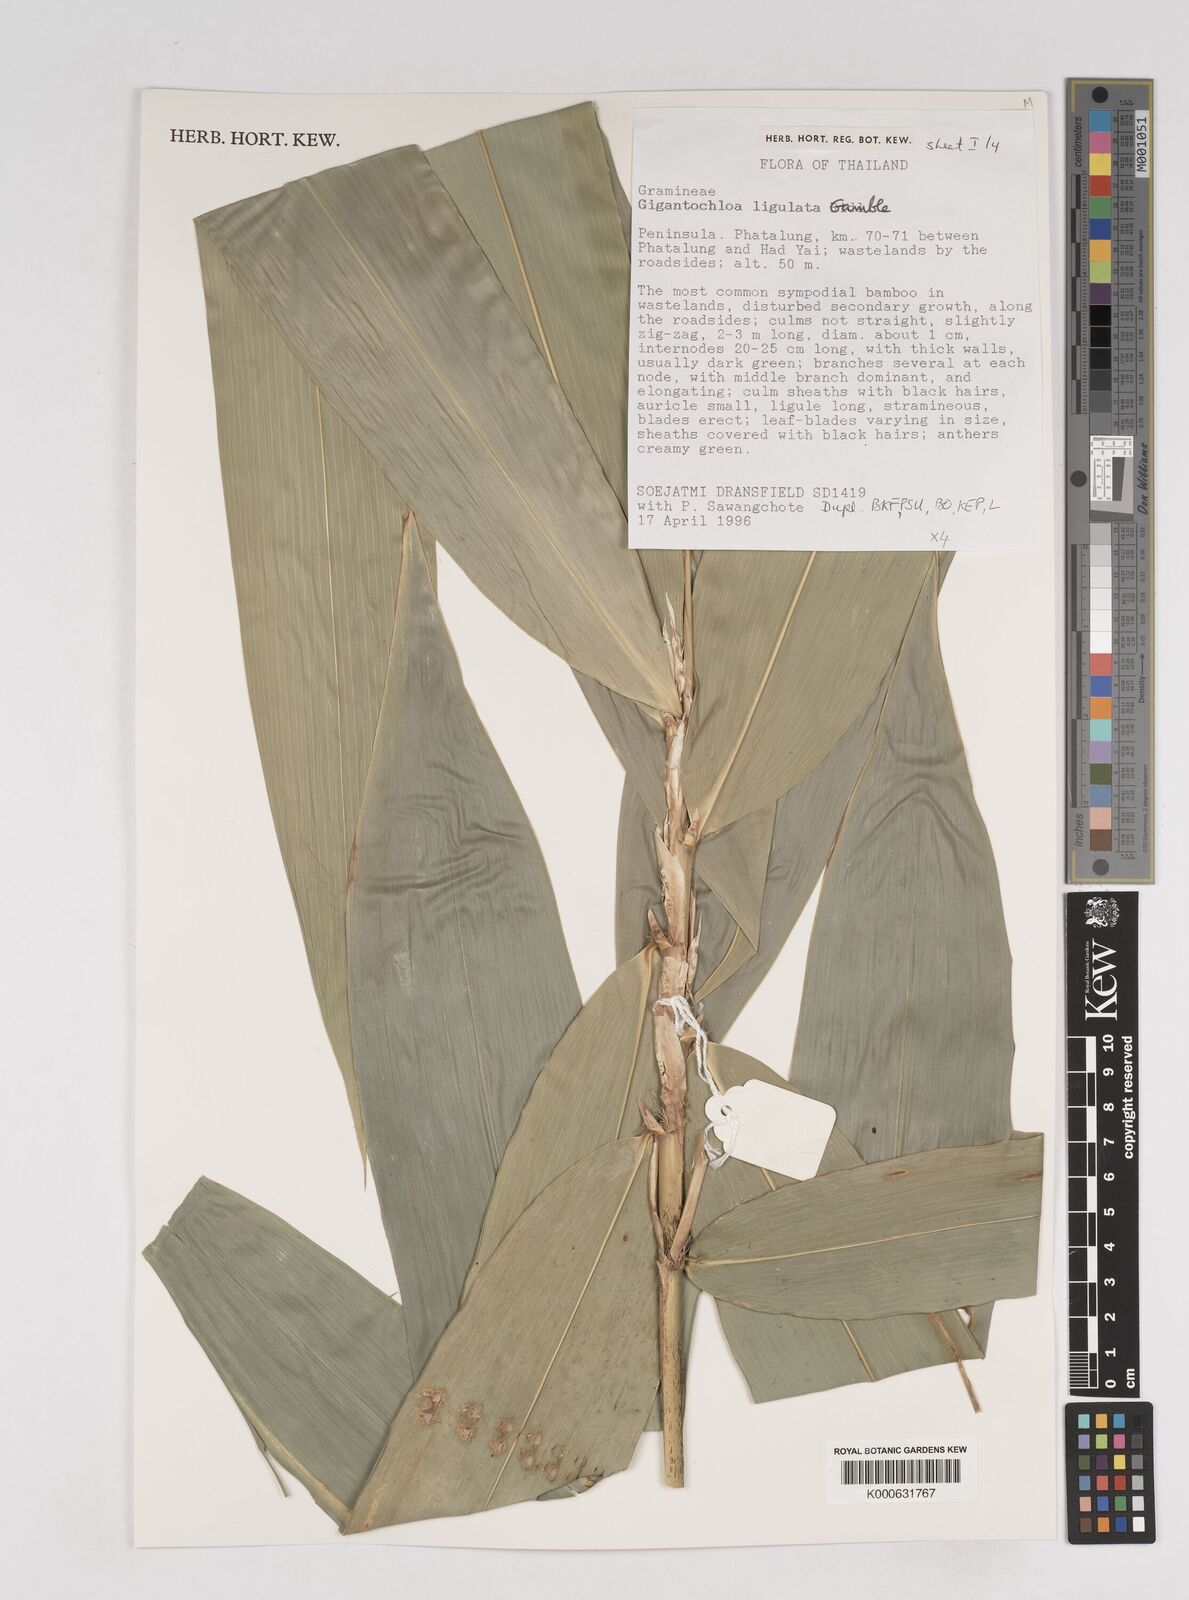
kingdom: Plantae
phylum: Tracheophyta
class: Liliopsida
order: Poales
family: Poaceae
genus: Gigantochloa
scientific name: Gigantochloa ligulata
